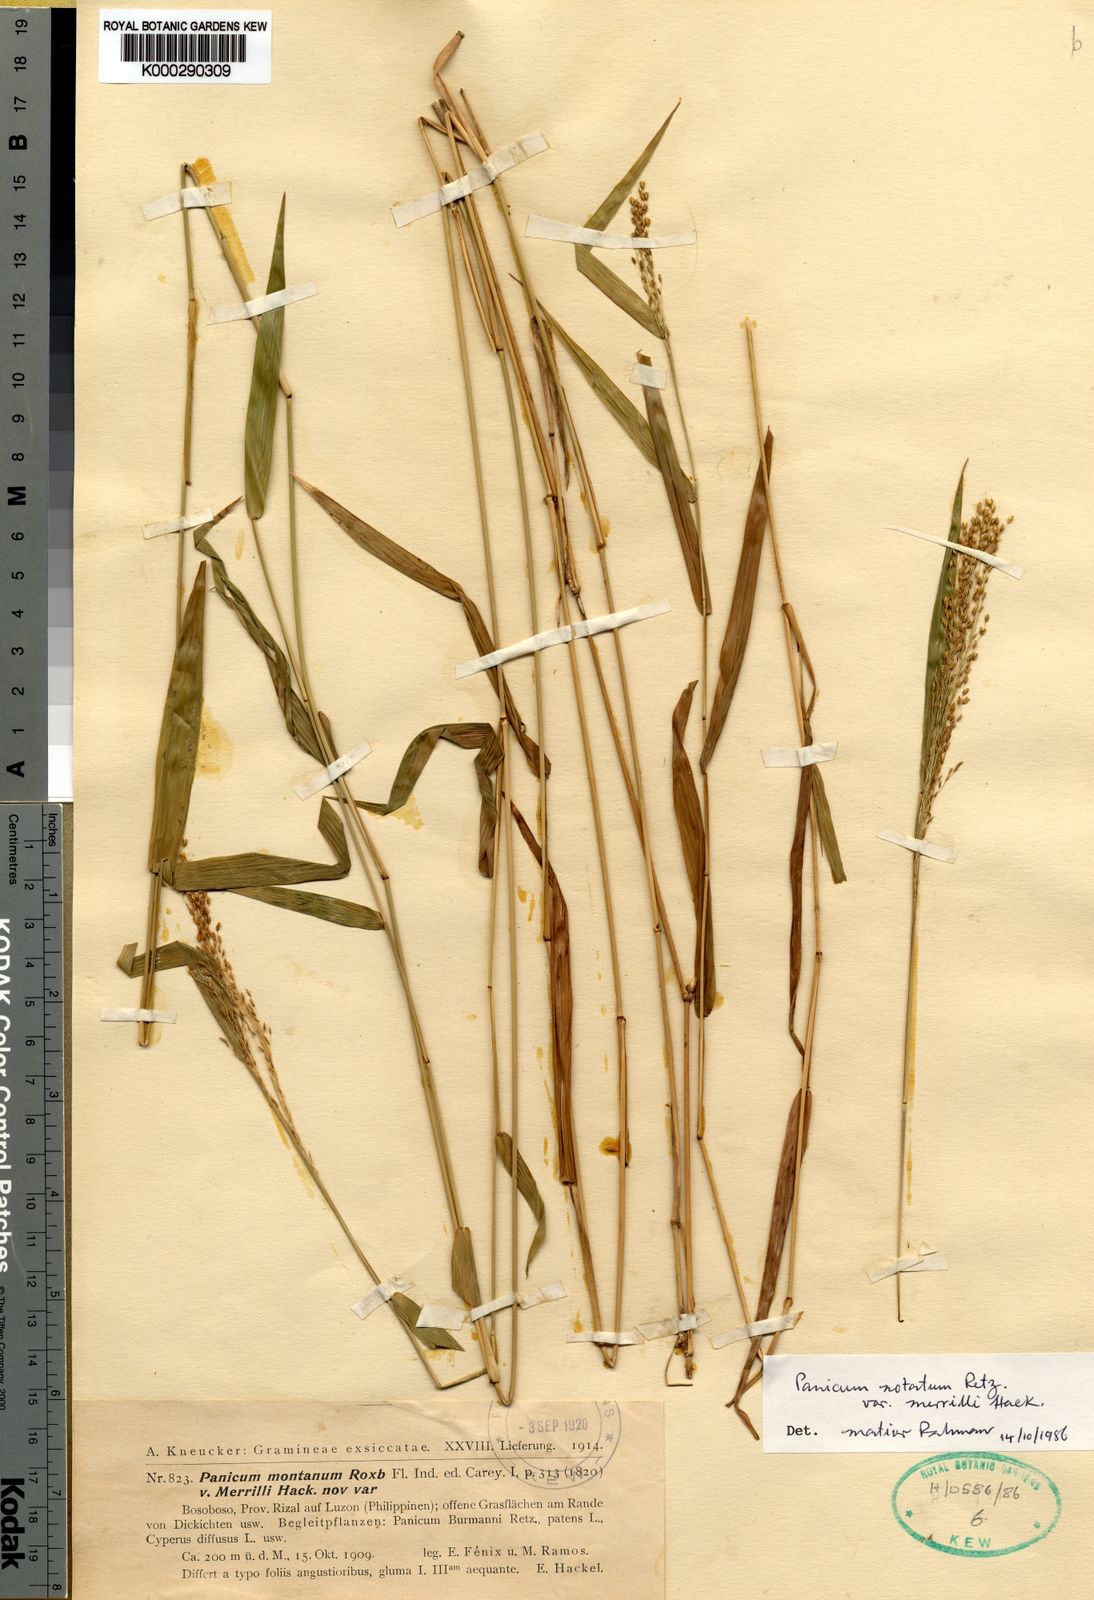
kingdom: Plantae
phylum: Tracheophyta
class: Liliopsida
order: Poales
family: Poaceae
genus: Panicum
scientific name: Panicum notatum
